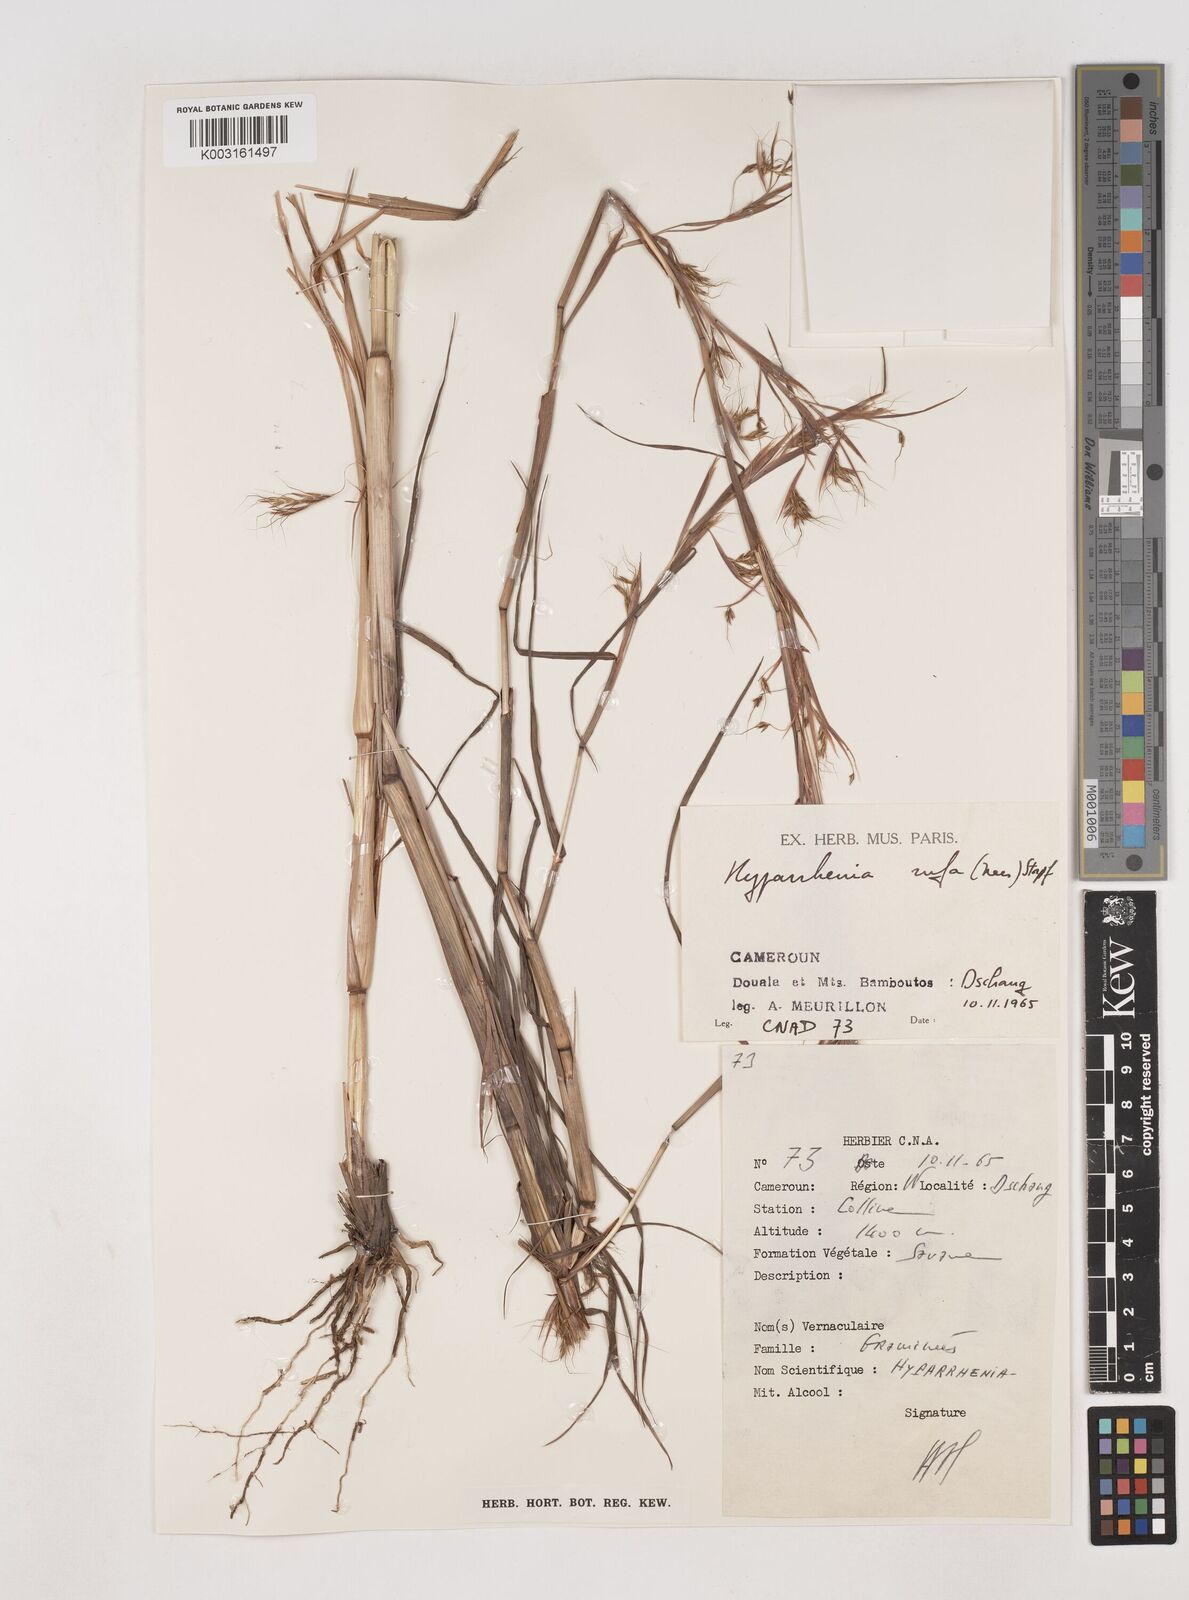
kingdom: Plantae
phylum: Tracheophyta
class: Liliopsida
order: Poales
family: Poaceae
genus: Hyparrhenia
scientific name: Hyparrhenia rufa
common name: Jaraguagrass
